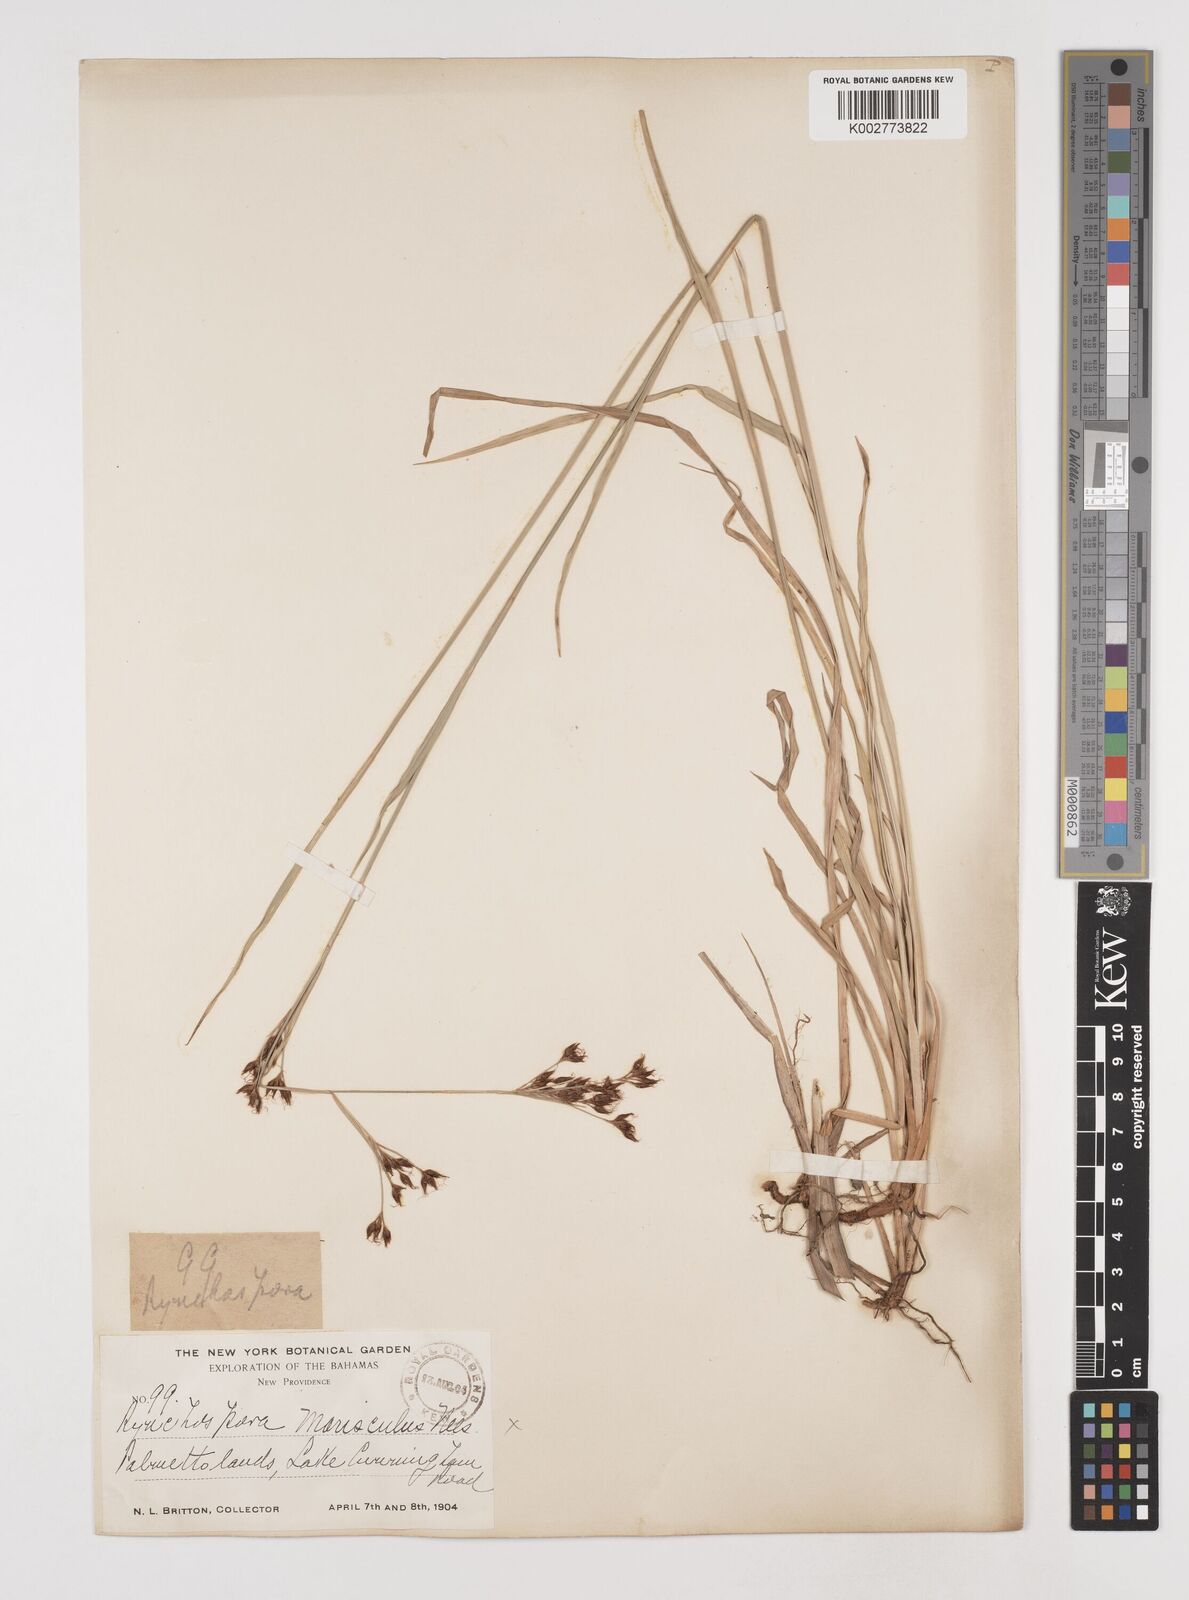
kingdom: Plantae
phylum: Tracheophyta
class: Liliopsida
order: Poales
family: Cyperaceae
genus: Rhynchospora
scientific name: Rhynchospora scutellata
